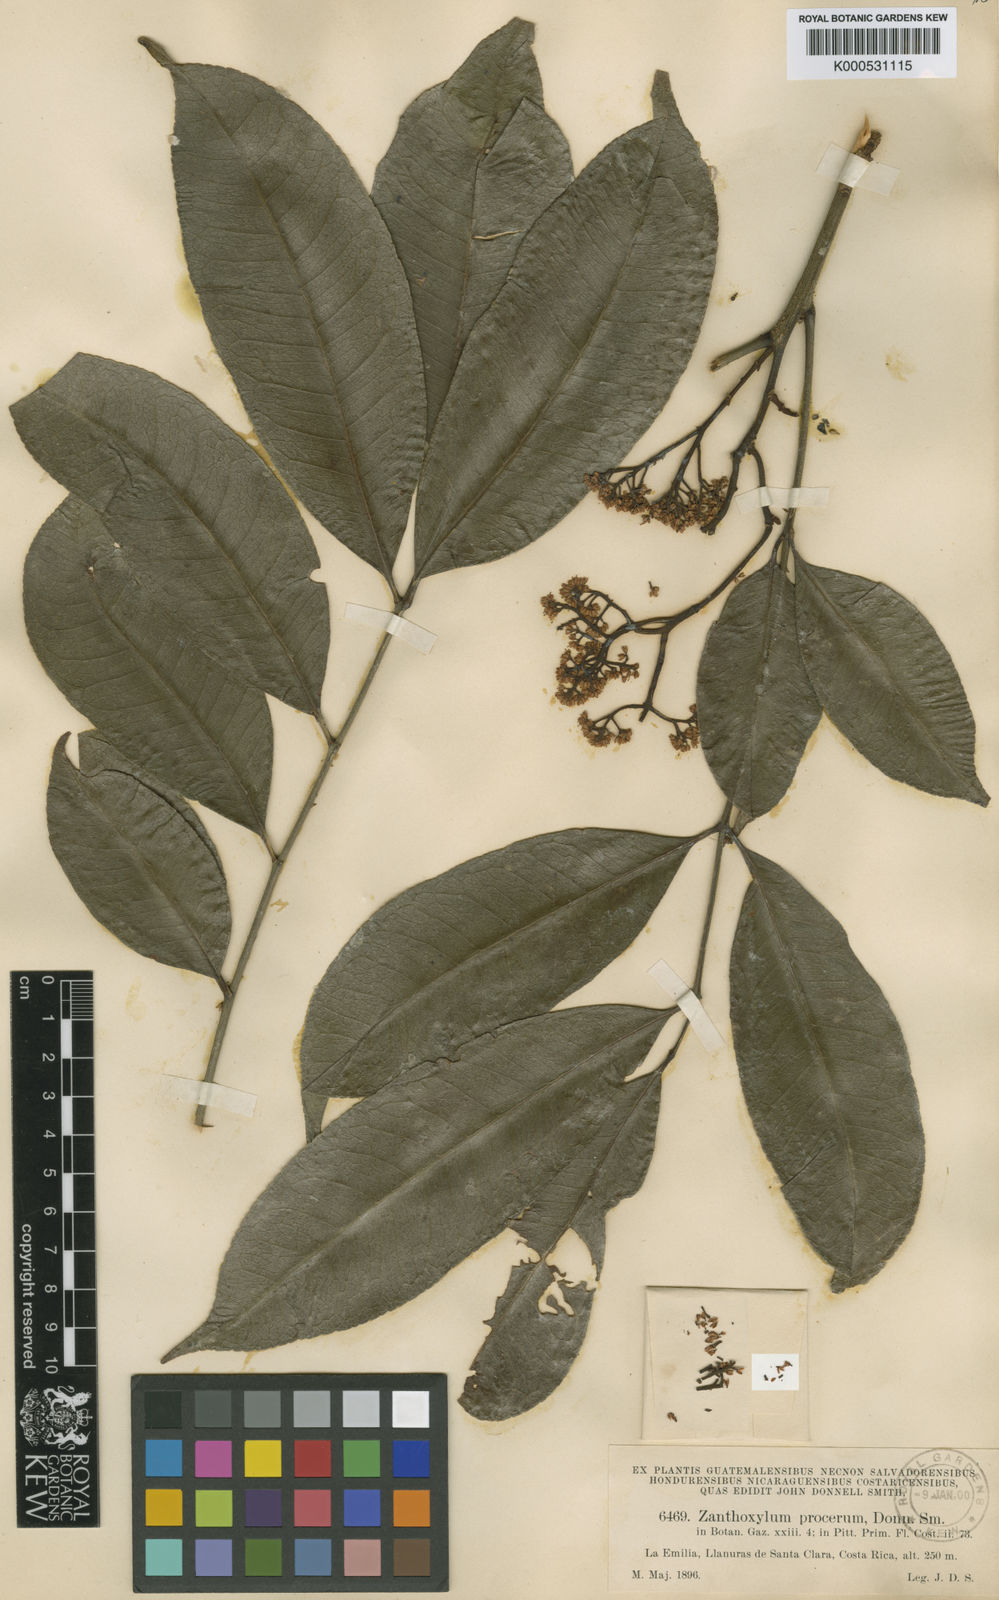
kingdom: Plantae
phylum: Tracheophyta
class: Magnoliopsida
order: Sapindales
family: Rutaceae
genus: Zanthoxylum
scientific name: Zanthoxylum acuminatum
